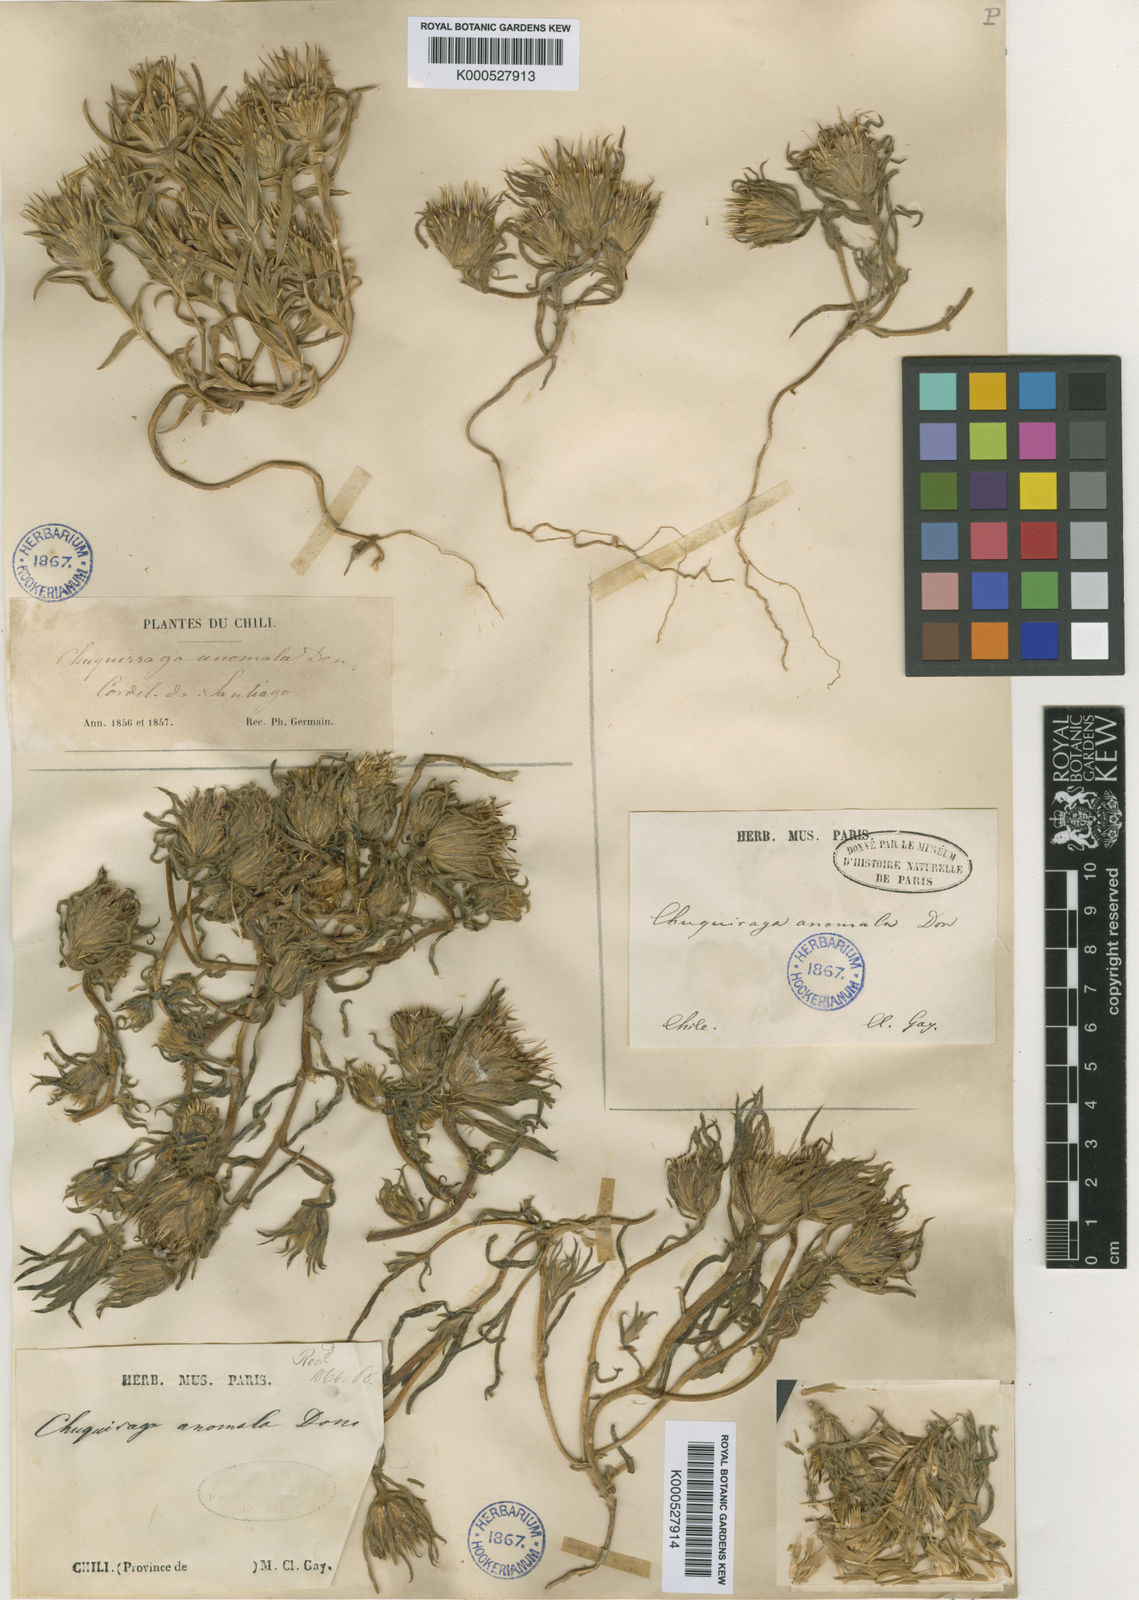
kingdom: Plantae
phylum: Tracheophyta
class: Magnoliopsida
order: Asterales
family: Asteraceae
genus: Doniophyton
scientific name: Doniophyton anomalum
